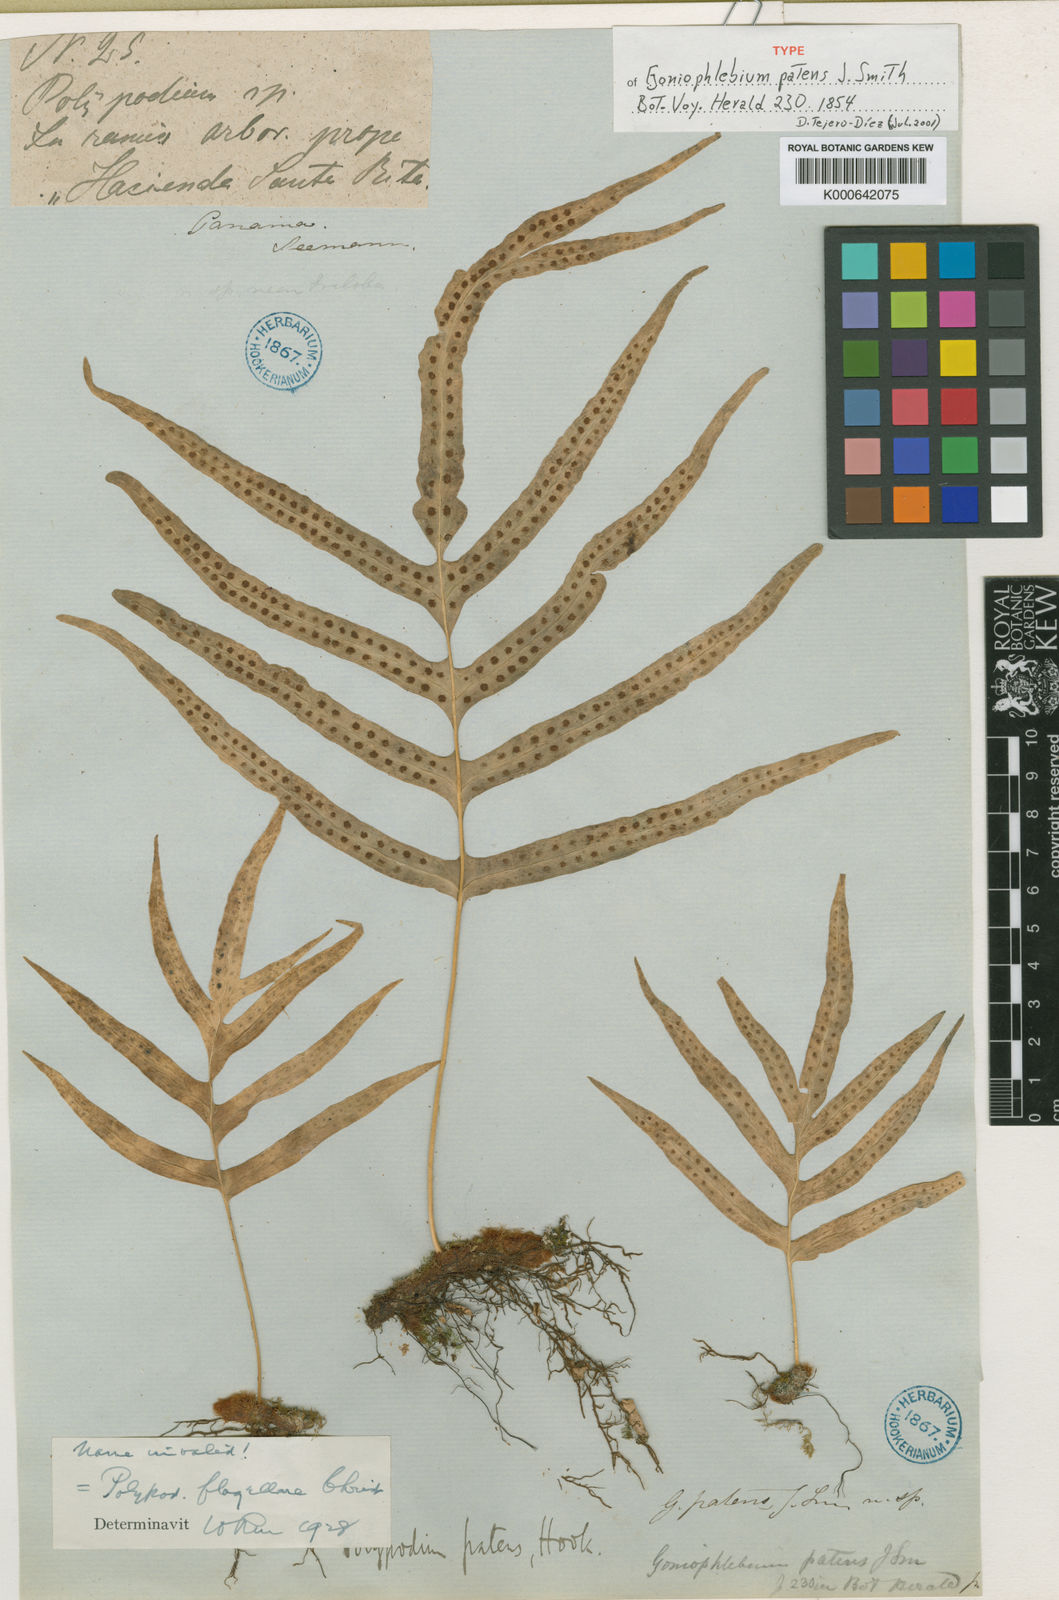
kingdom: Plantae
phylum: Tracheophyta
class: Polypodiopsida
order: Polypodiales
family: Polypodiaceae
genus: Polypodium
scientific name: Polypodium flagellare
